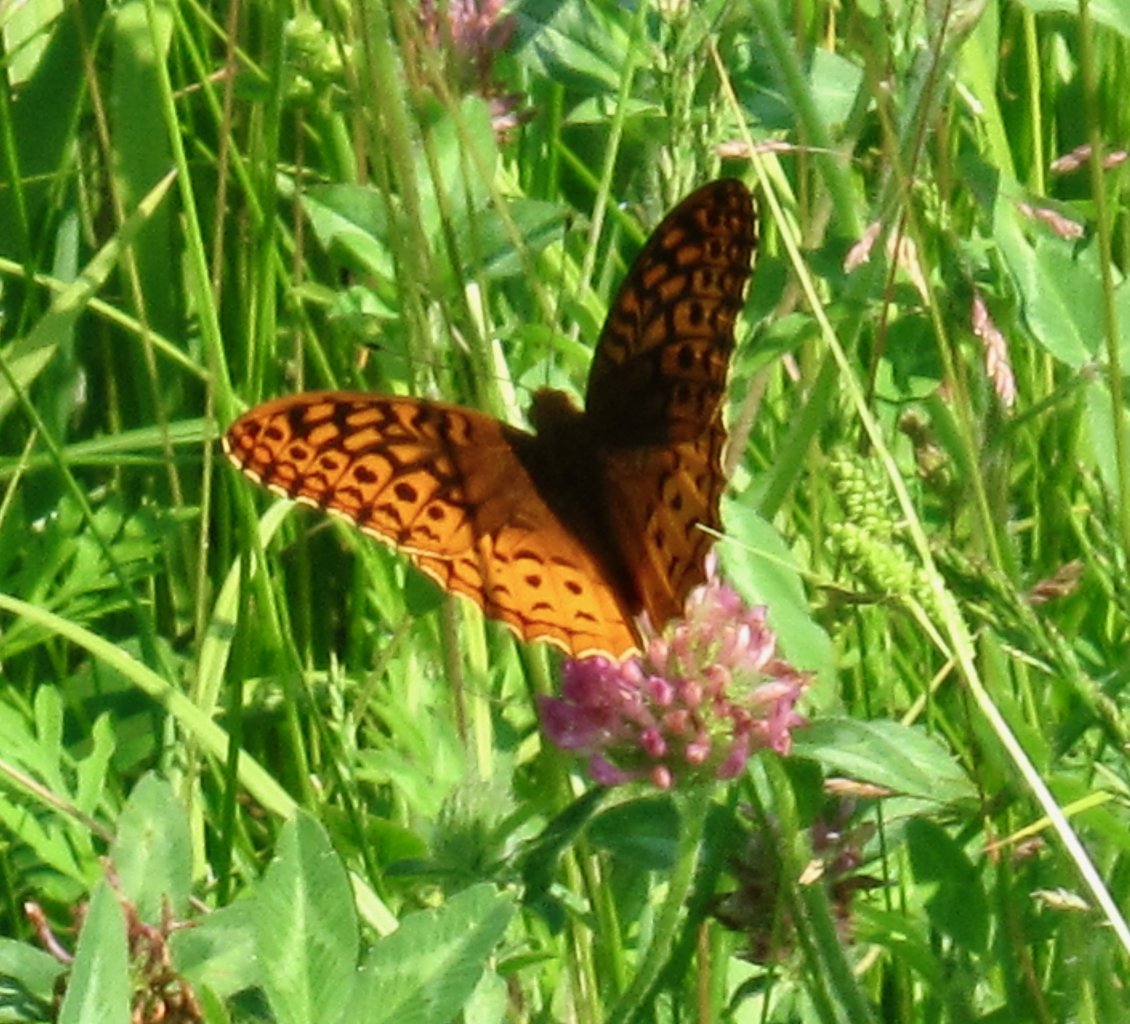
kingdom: Animalia
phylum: Arthropoda
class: Insecta
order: Lepidoptera
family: Nymphalidae
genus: Speyeria
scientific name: Speyeria cybele
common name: Great Spangled Fritillary
